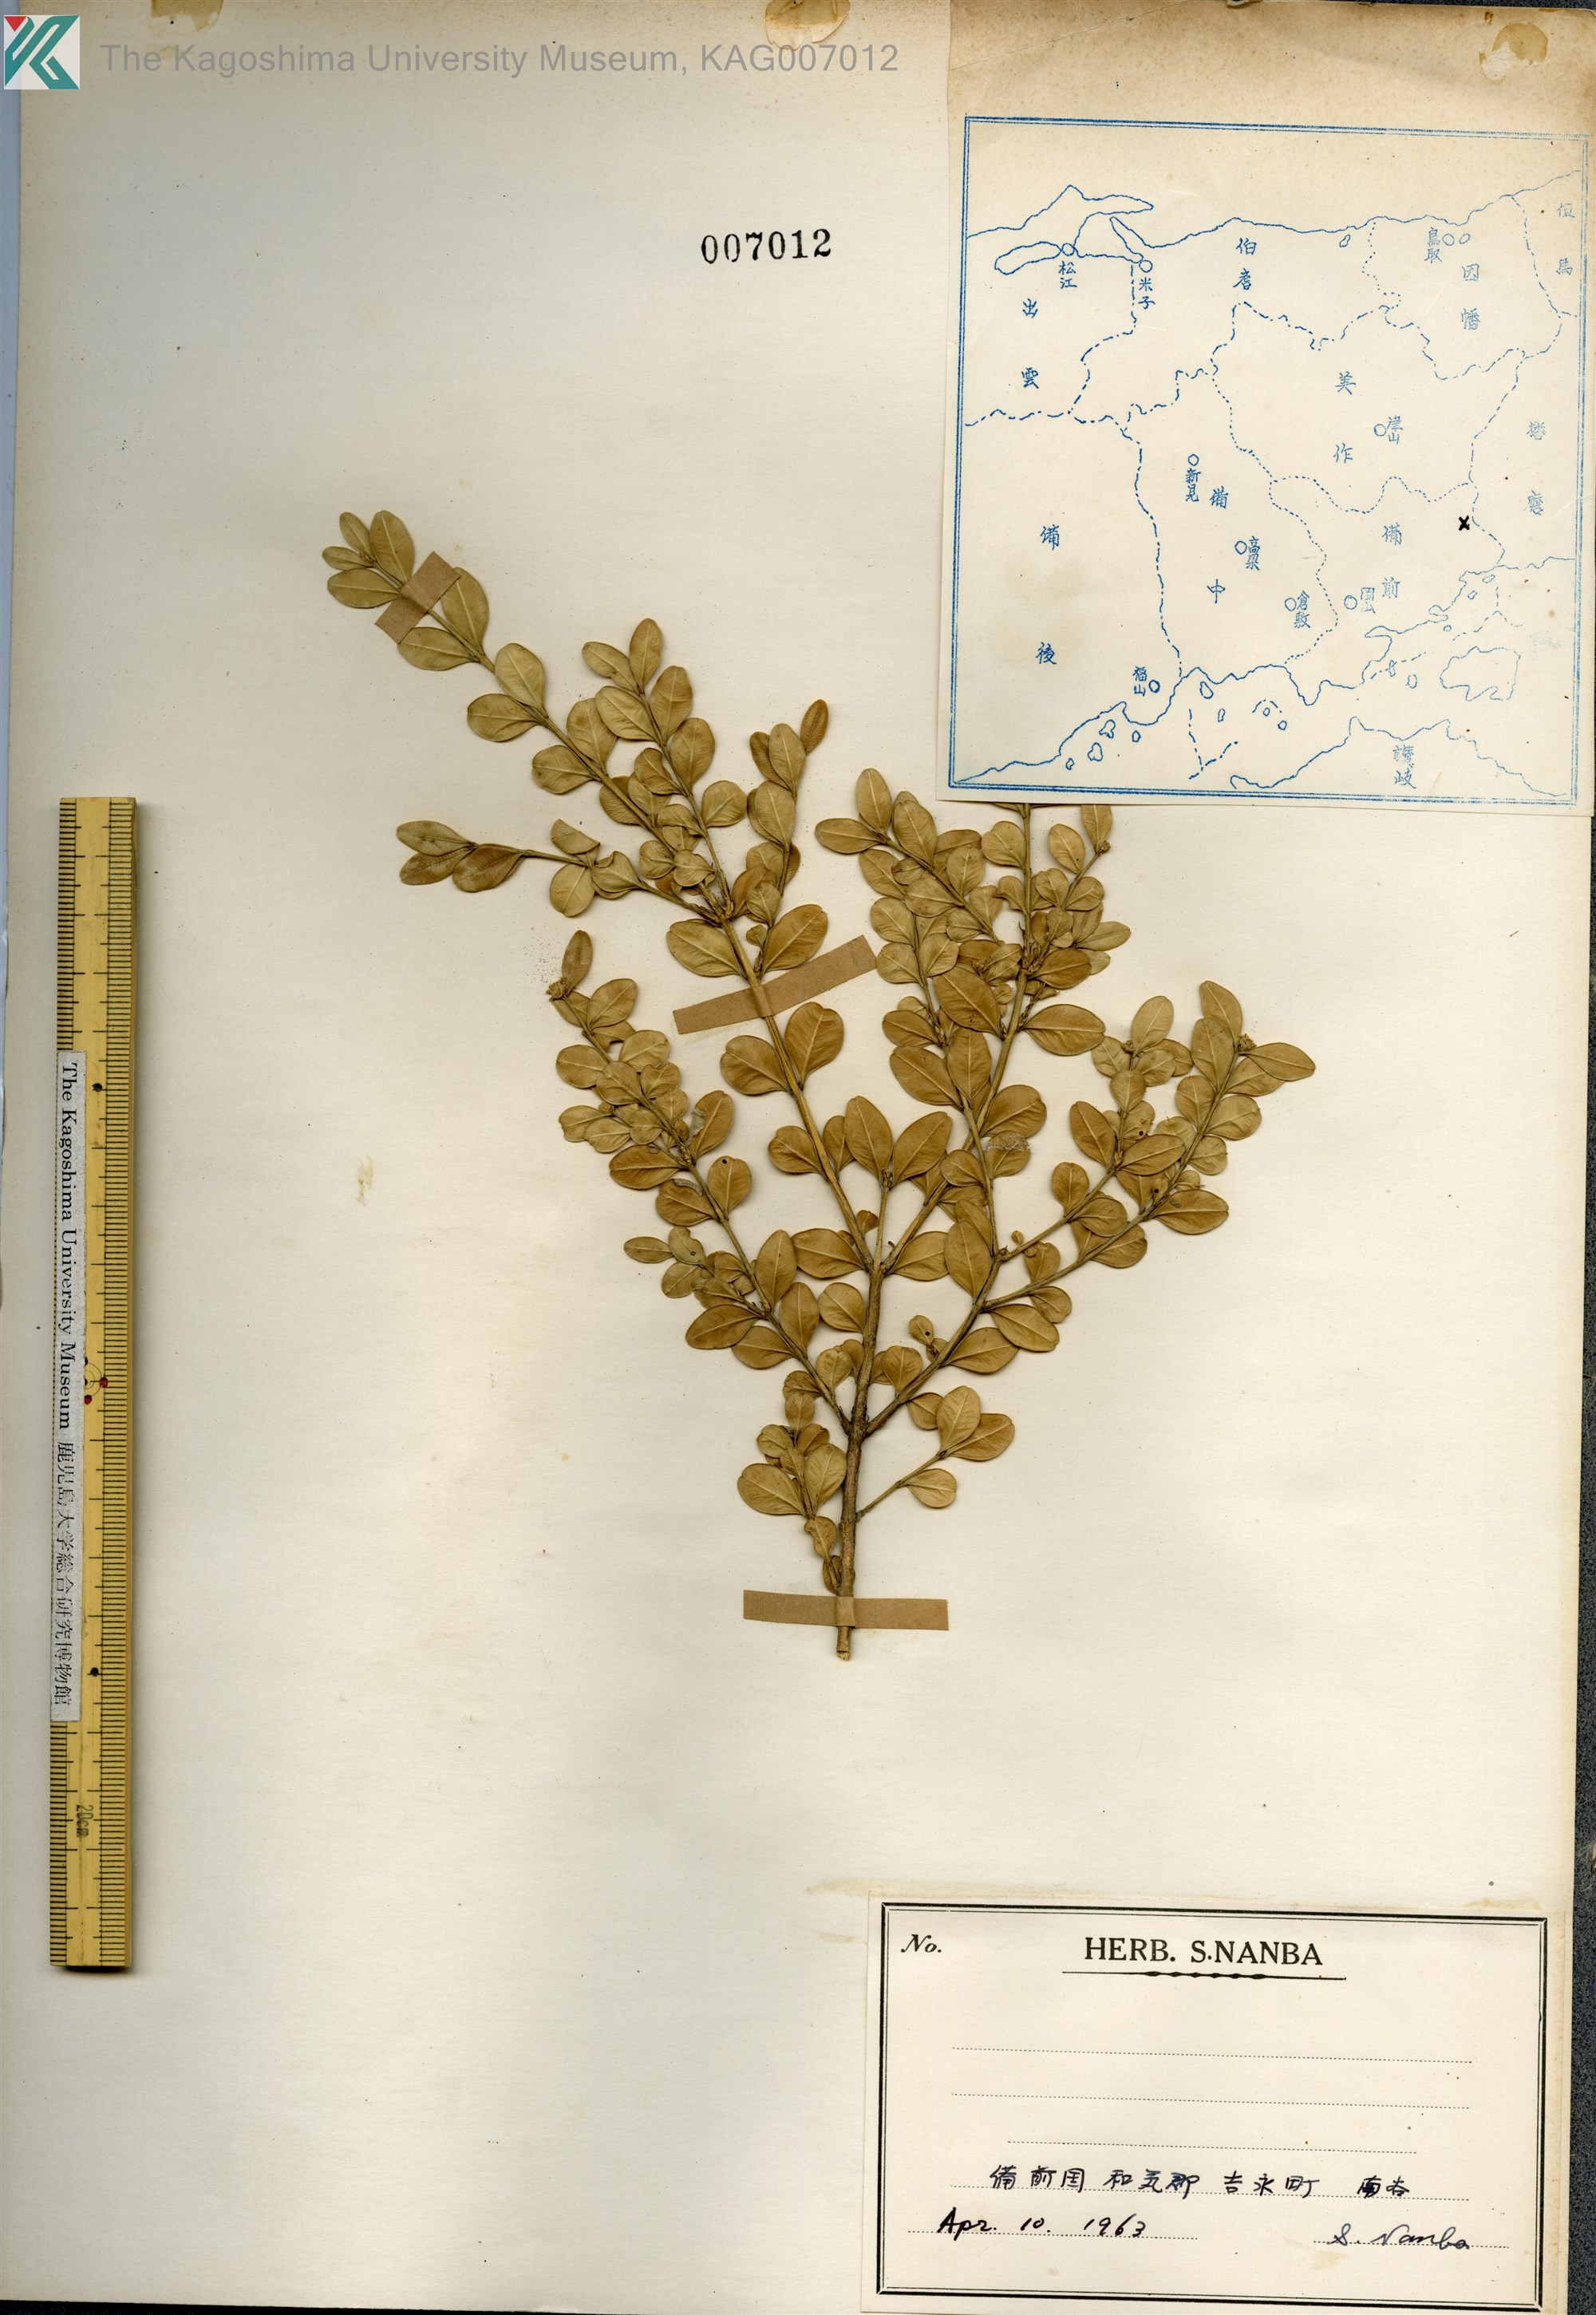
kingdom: Plantae
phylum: Tracheophyta
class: Magnoliopsida
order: Buxales
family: Buxaceae
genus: Buxus
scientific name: Buxus microphylla
